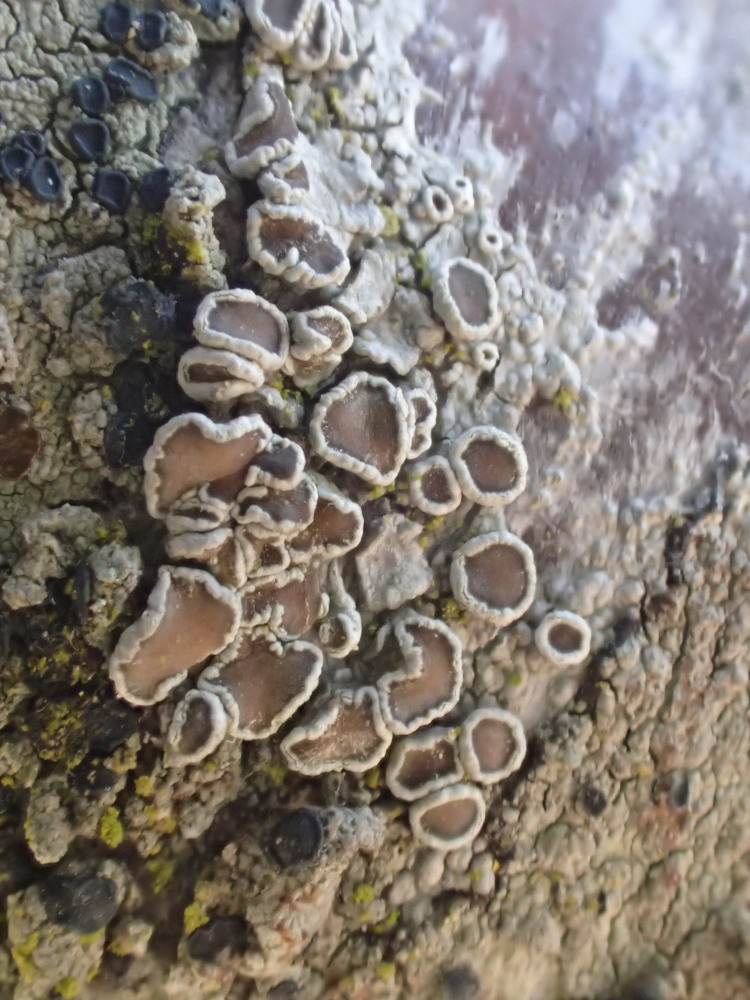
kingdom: Fungi
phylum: Ascomycota
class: Lecanoromycetes
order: Lecanorales
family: Lecanoraceae
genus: Lecanora
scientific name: Lecanora chlarotera
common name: brun kantskivelav
